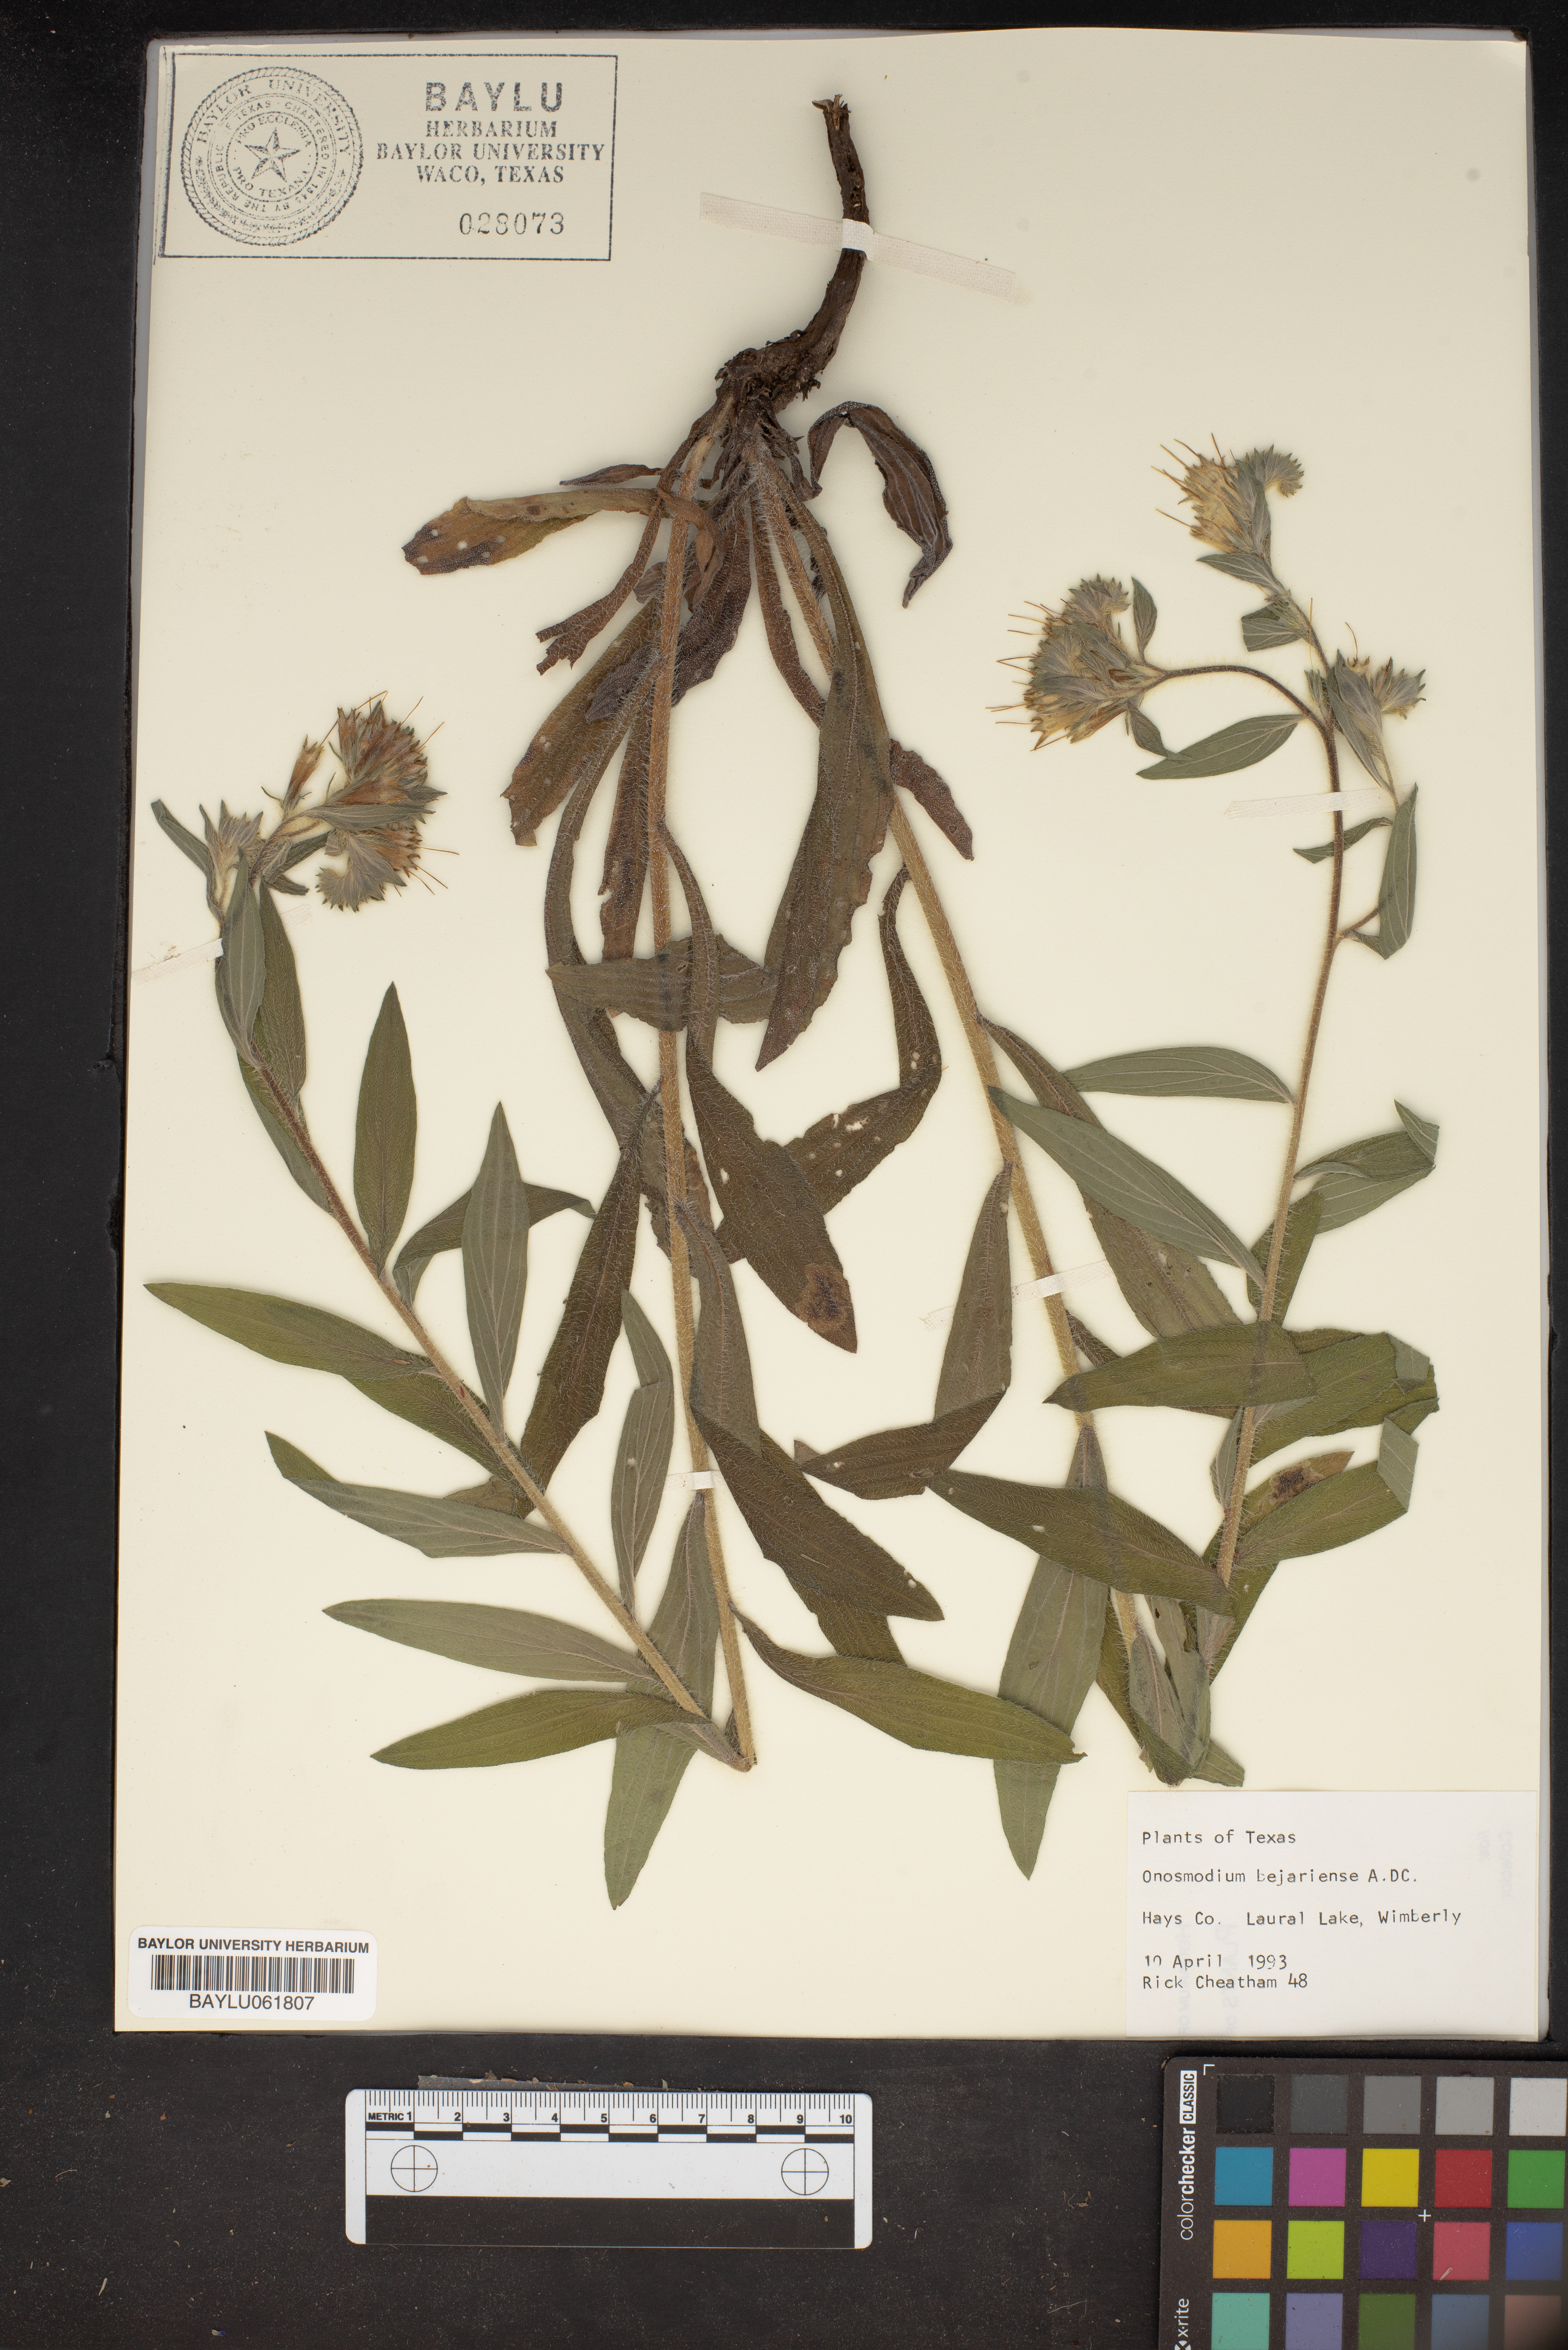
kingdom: Plantae
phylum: Tracheophyta
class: Magnoliopsida
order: Boraginales
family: Boraginaceae
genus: Lithospermum
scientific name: Lithospermum molle
